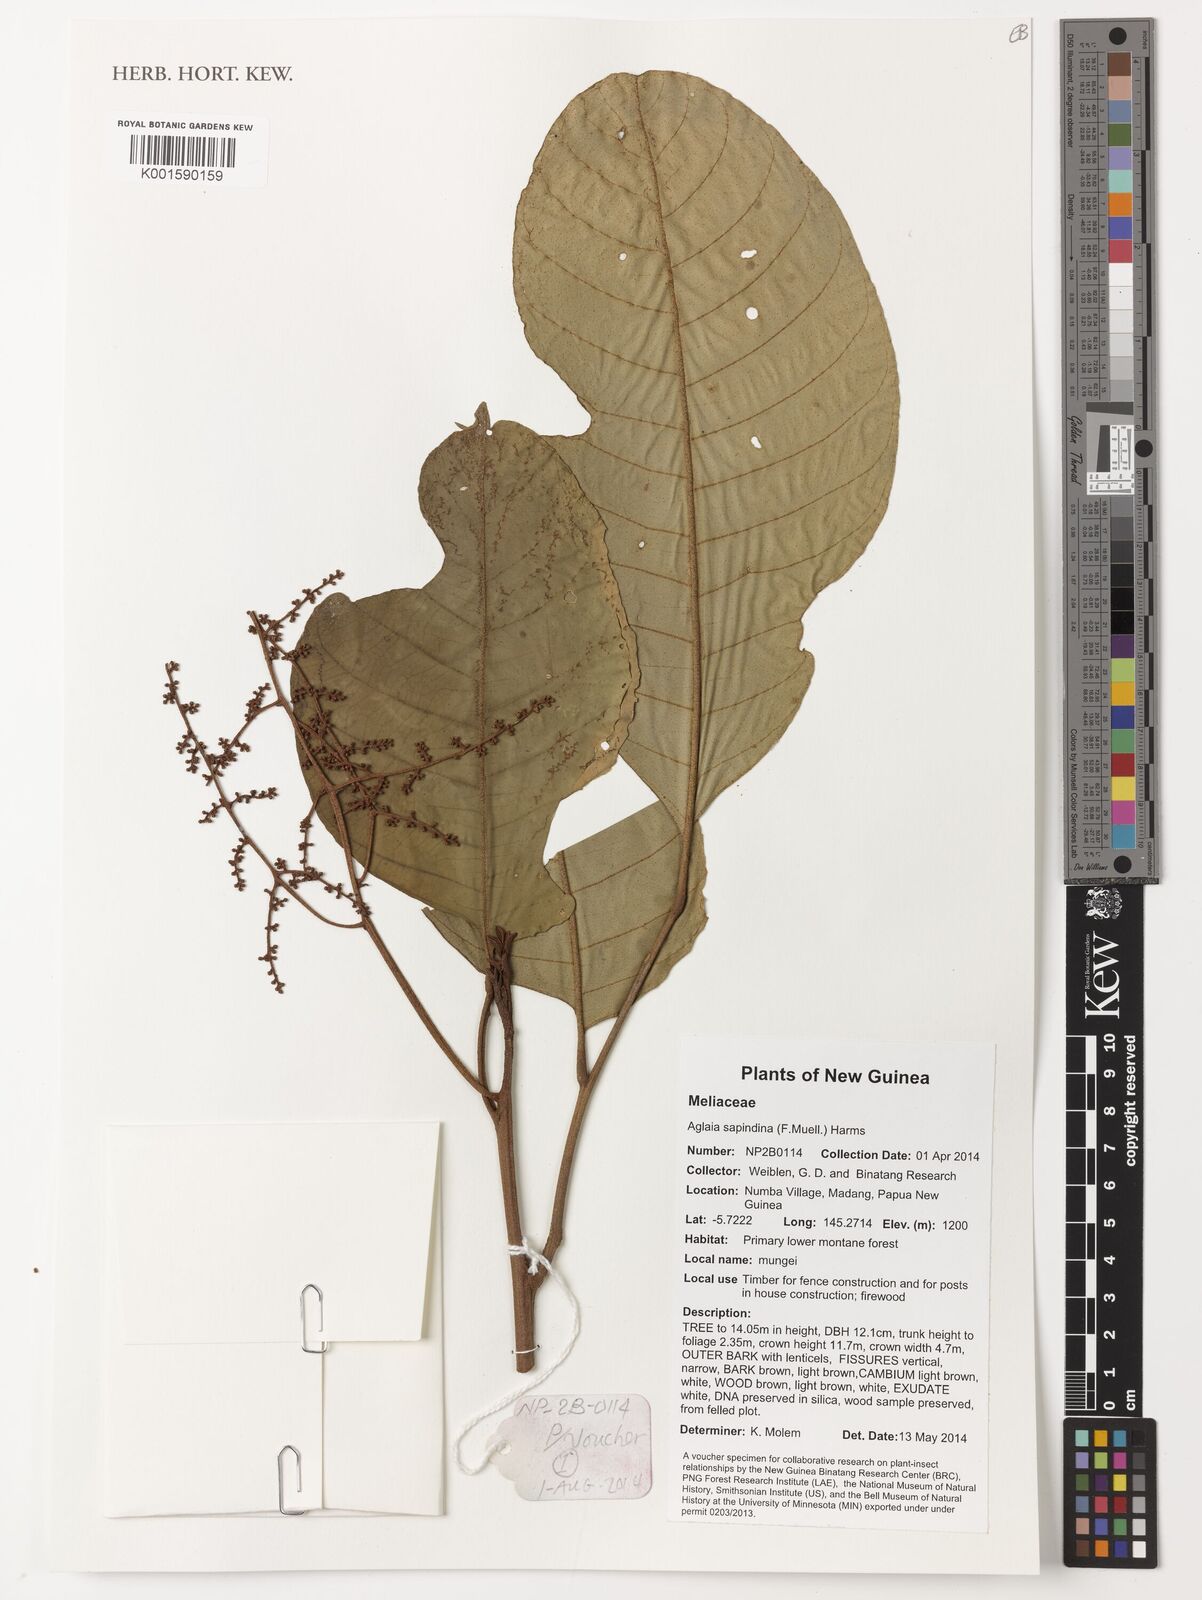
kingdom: Plantae
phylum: Tracheophyta
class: Magnoliopsida
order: Sapindales
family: Meliaceae
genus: Aglaia
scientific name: Aglaia sapindina
